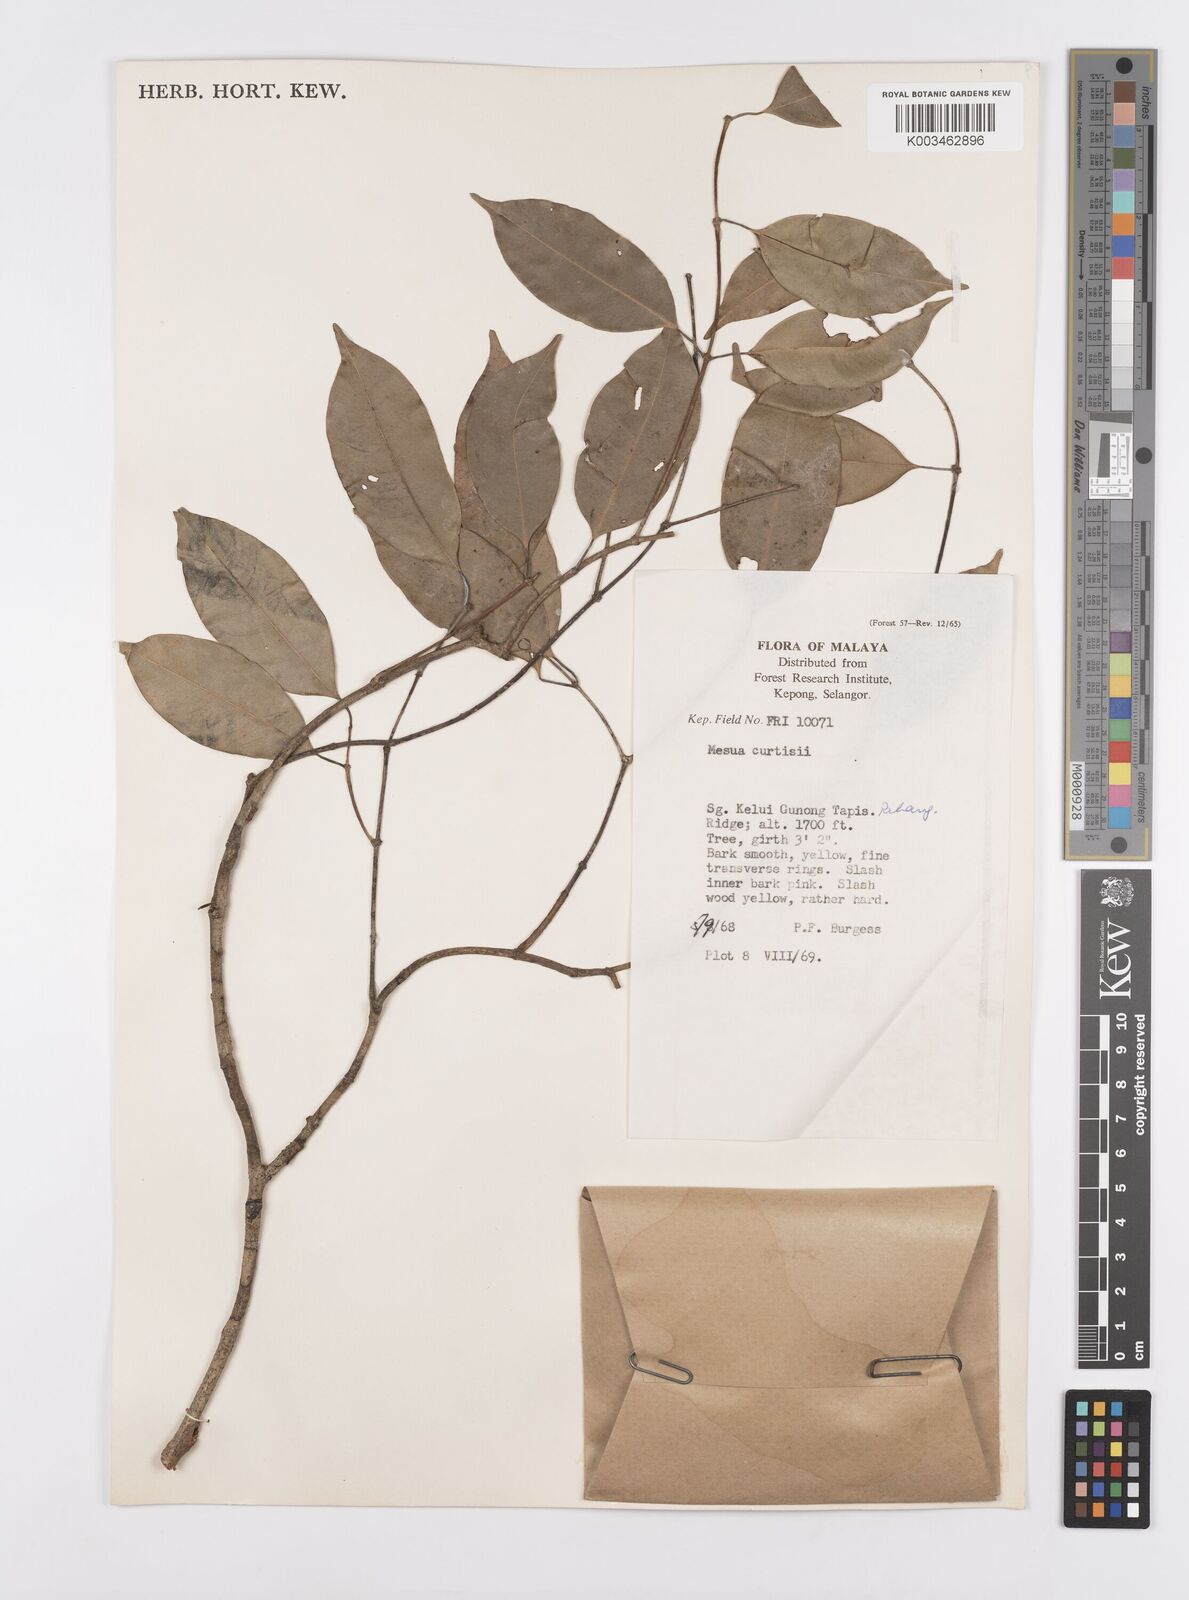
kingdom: Plantae
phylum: Tracheophyta
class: Magnoliopsida
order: Malpighiales
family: Calophyllaceae
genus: Kayea
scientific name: Kayea beccariana
